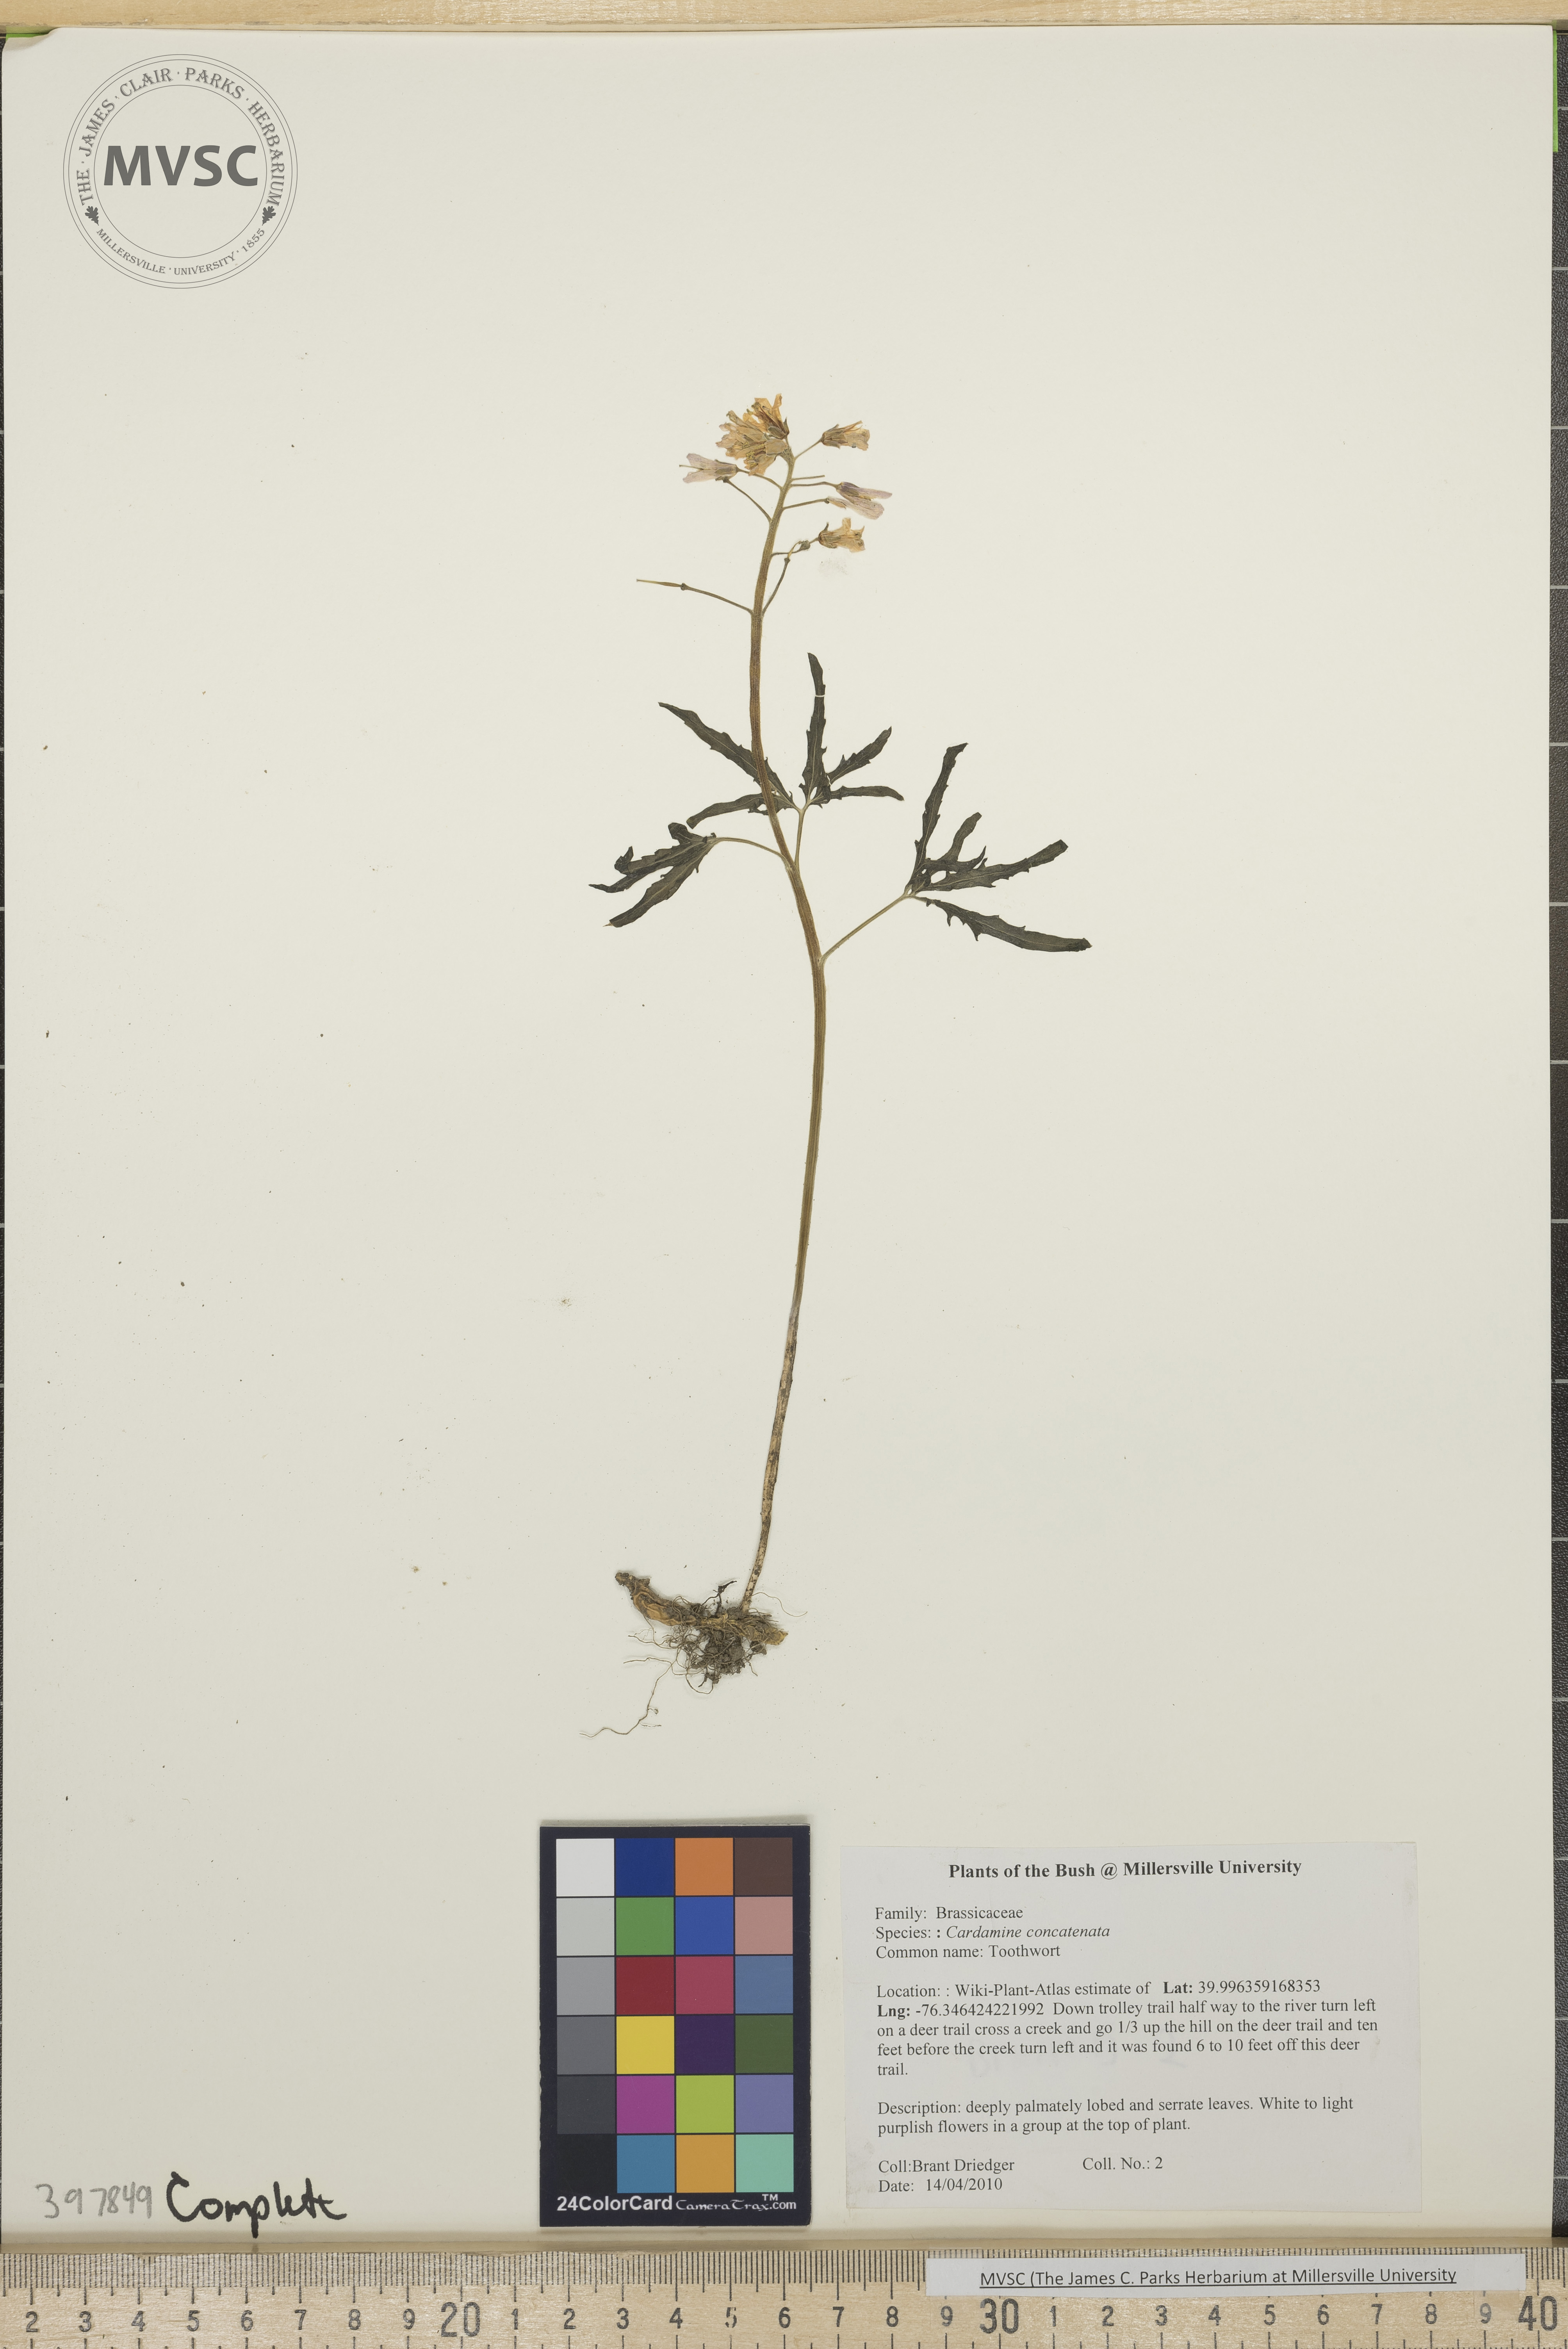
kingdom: Plantae
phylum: Tracheophyta
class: Magnoliopsida
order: Brassicales
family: Brassicaceae
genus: Cardamine
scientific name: Cardamine concatenata
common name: Toothwort
